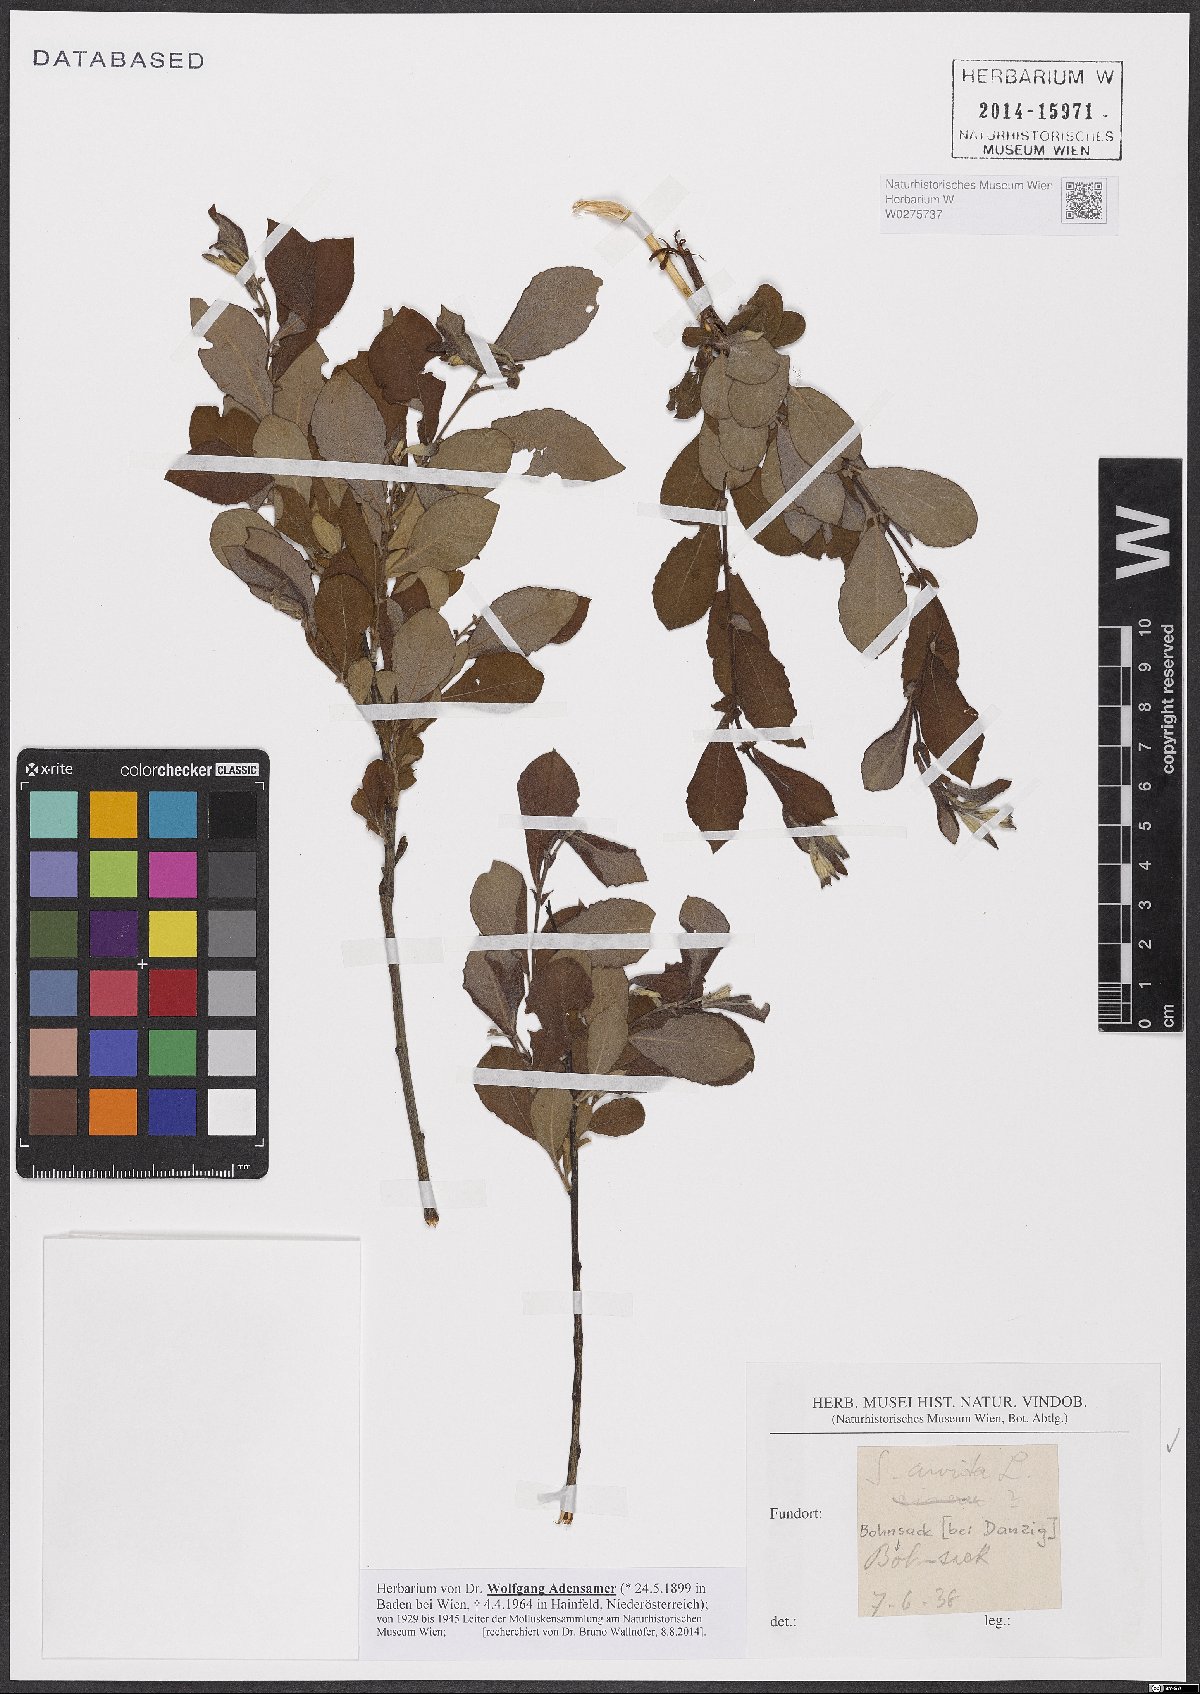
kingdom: Plantae
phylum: Tracheophyta
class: Magnoliopsida
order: Malpighiales
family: Salicaceae
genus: Salix
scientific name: Salix aurita
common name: Eared willow
